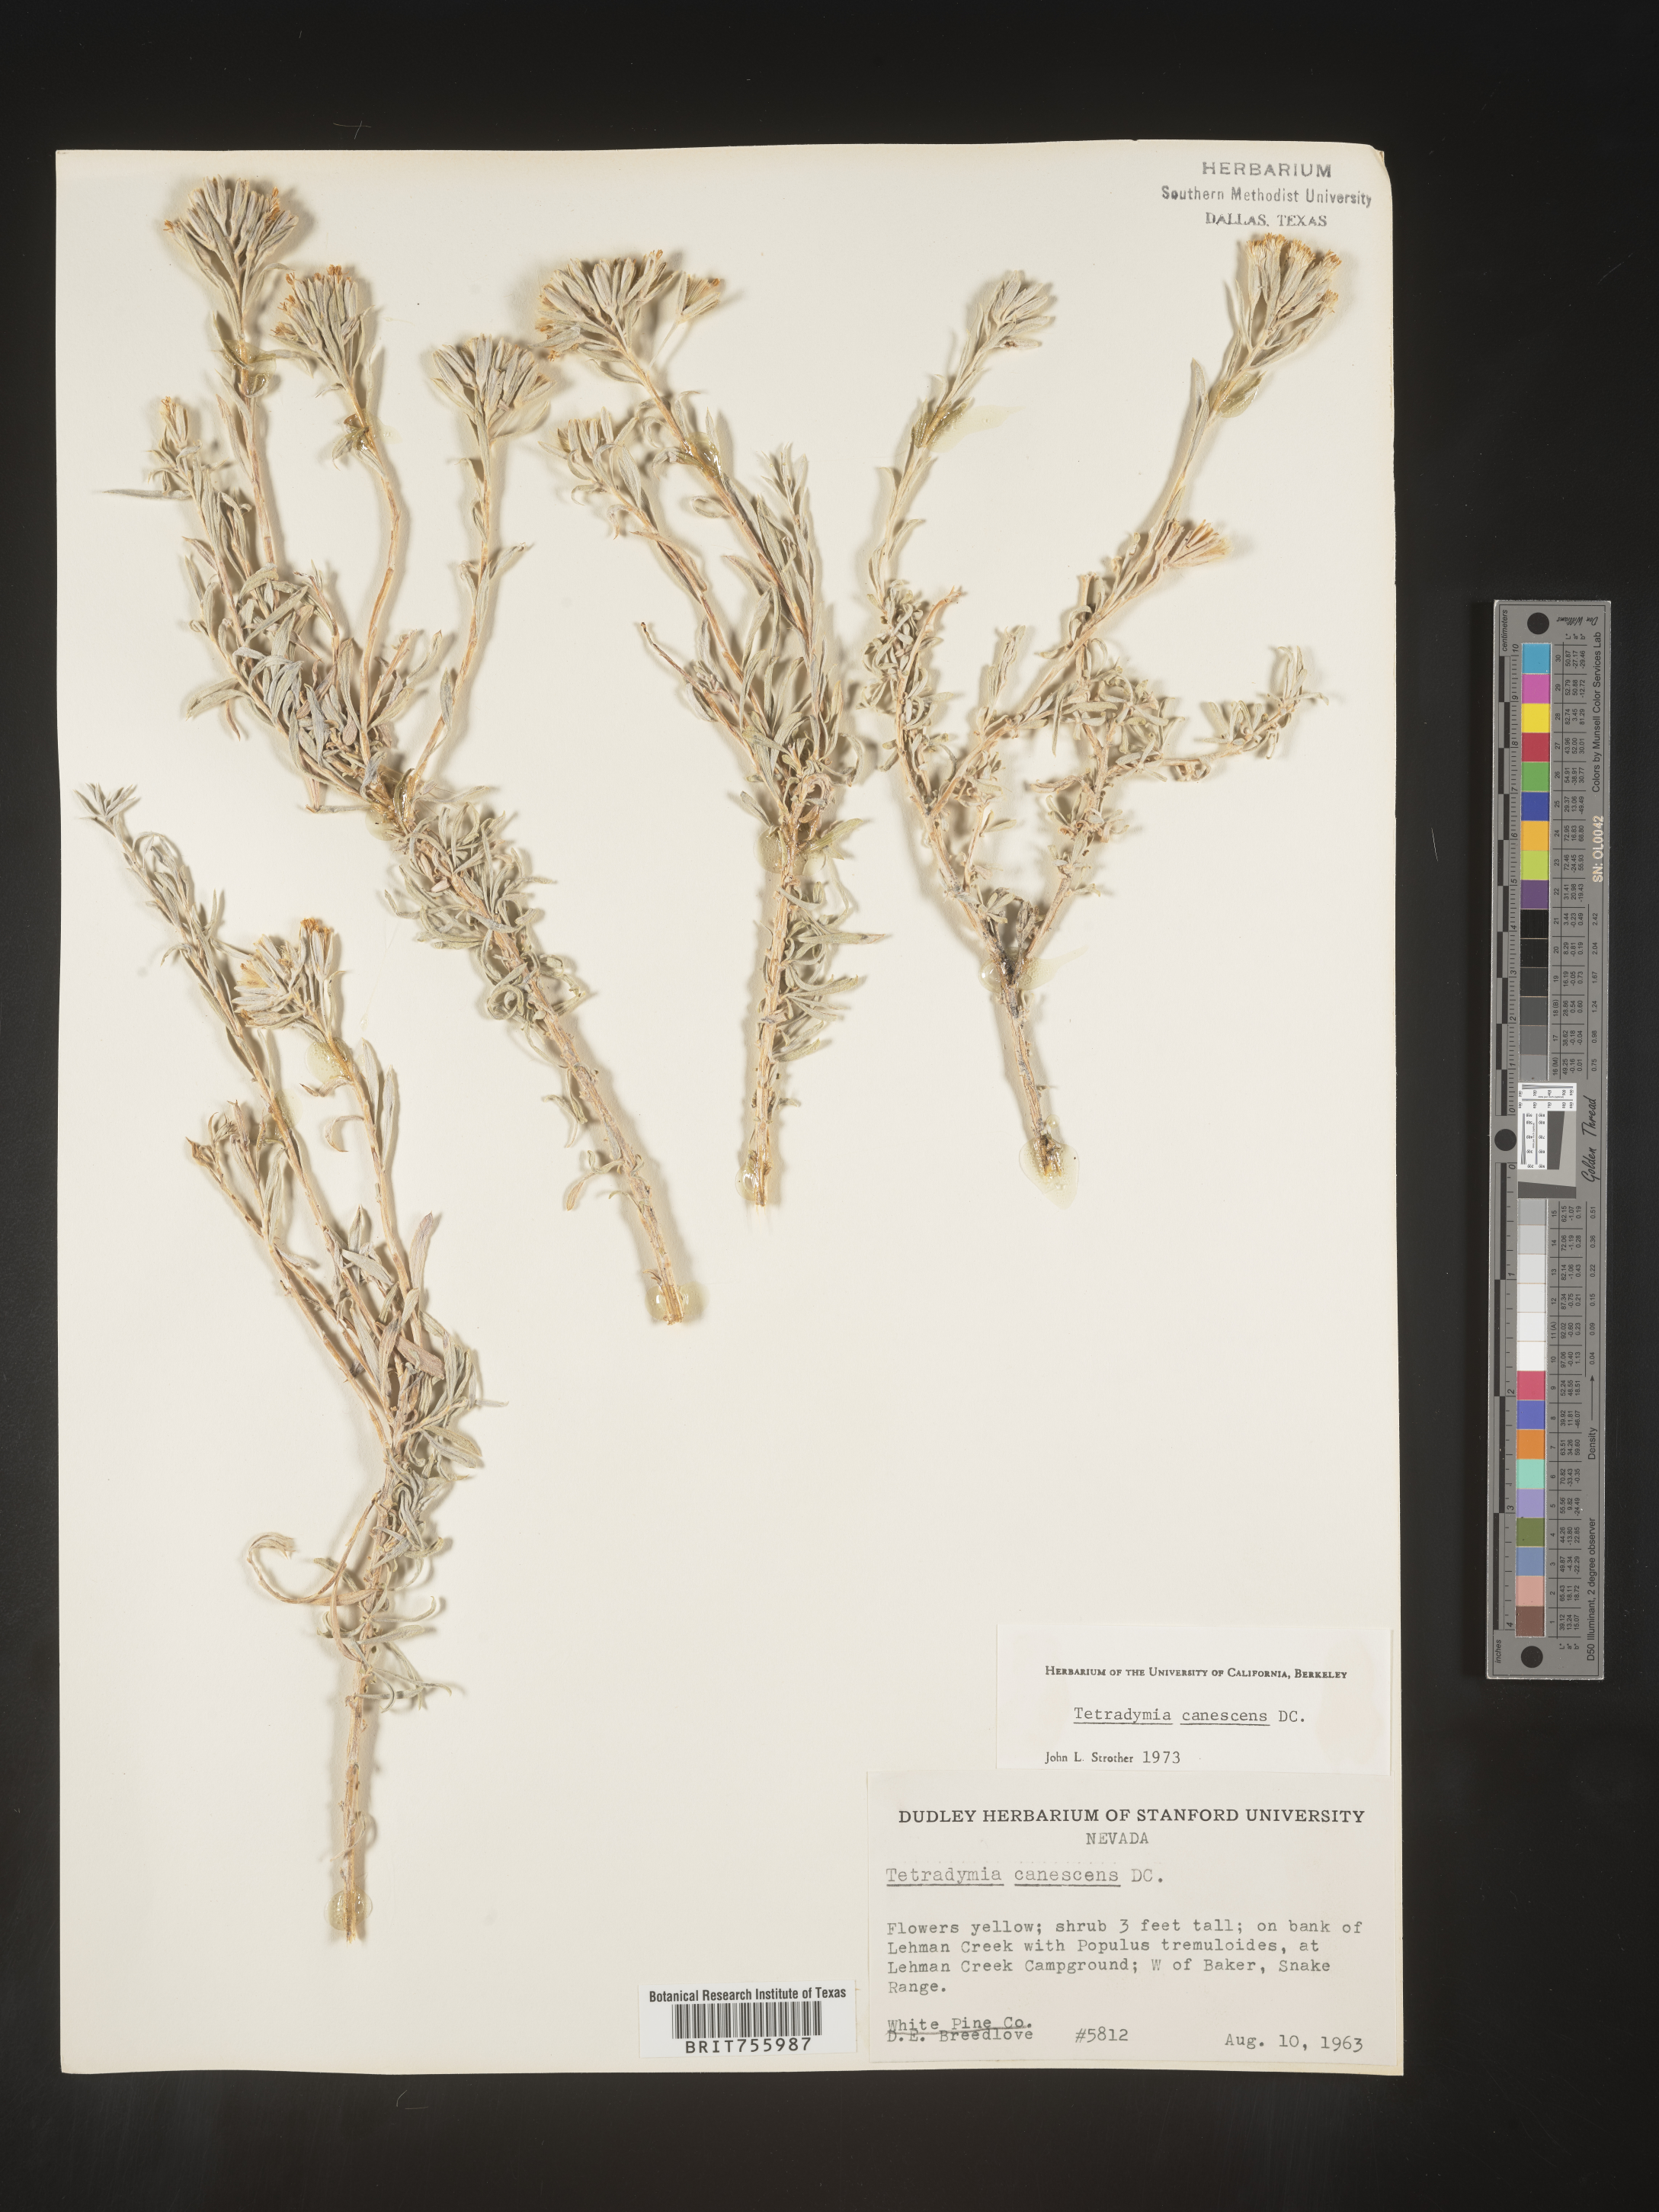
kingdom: Plantae
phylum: Tracheophyta
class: Magnoliopsida
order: Asterales
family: Asteraceae
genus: Tetradymia
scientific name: Tetradymia canescens
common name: Spineless horsebrush
